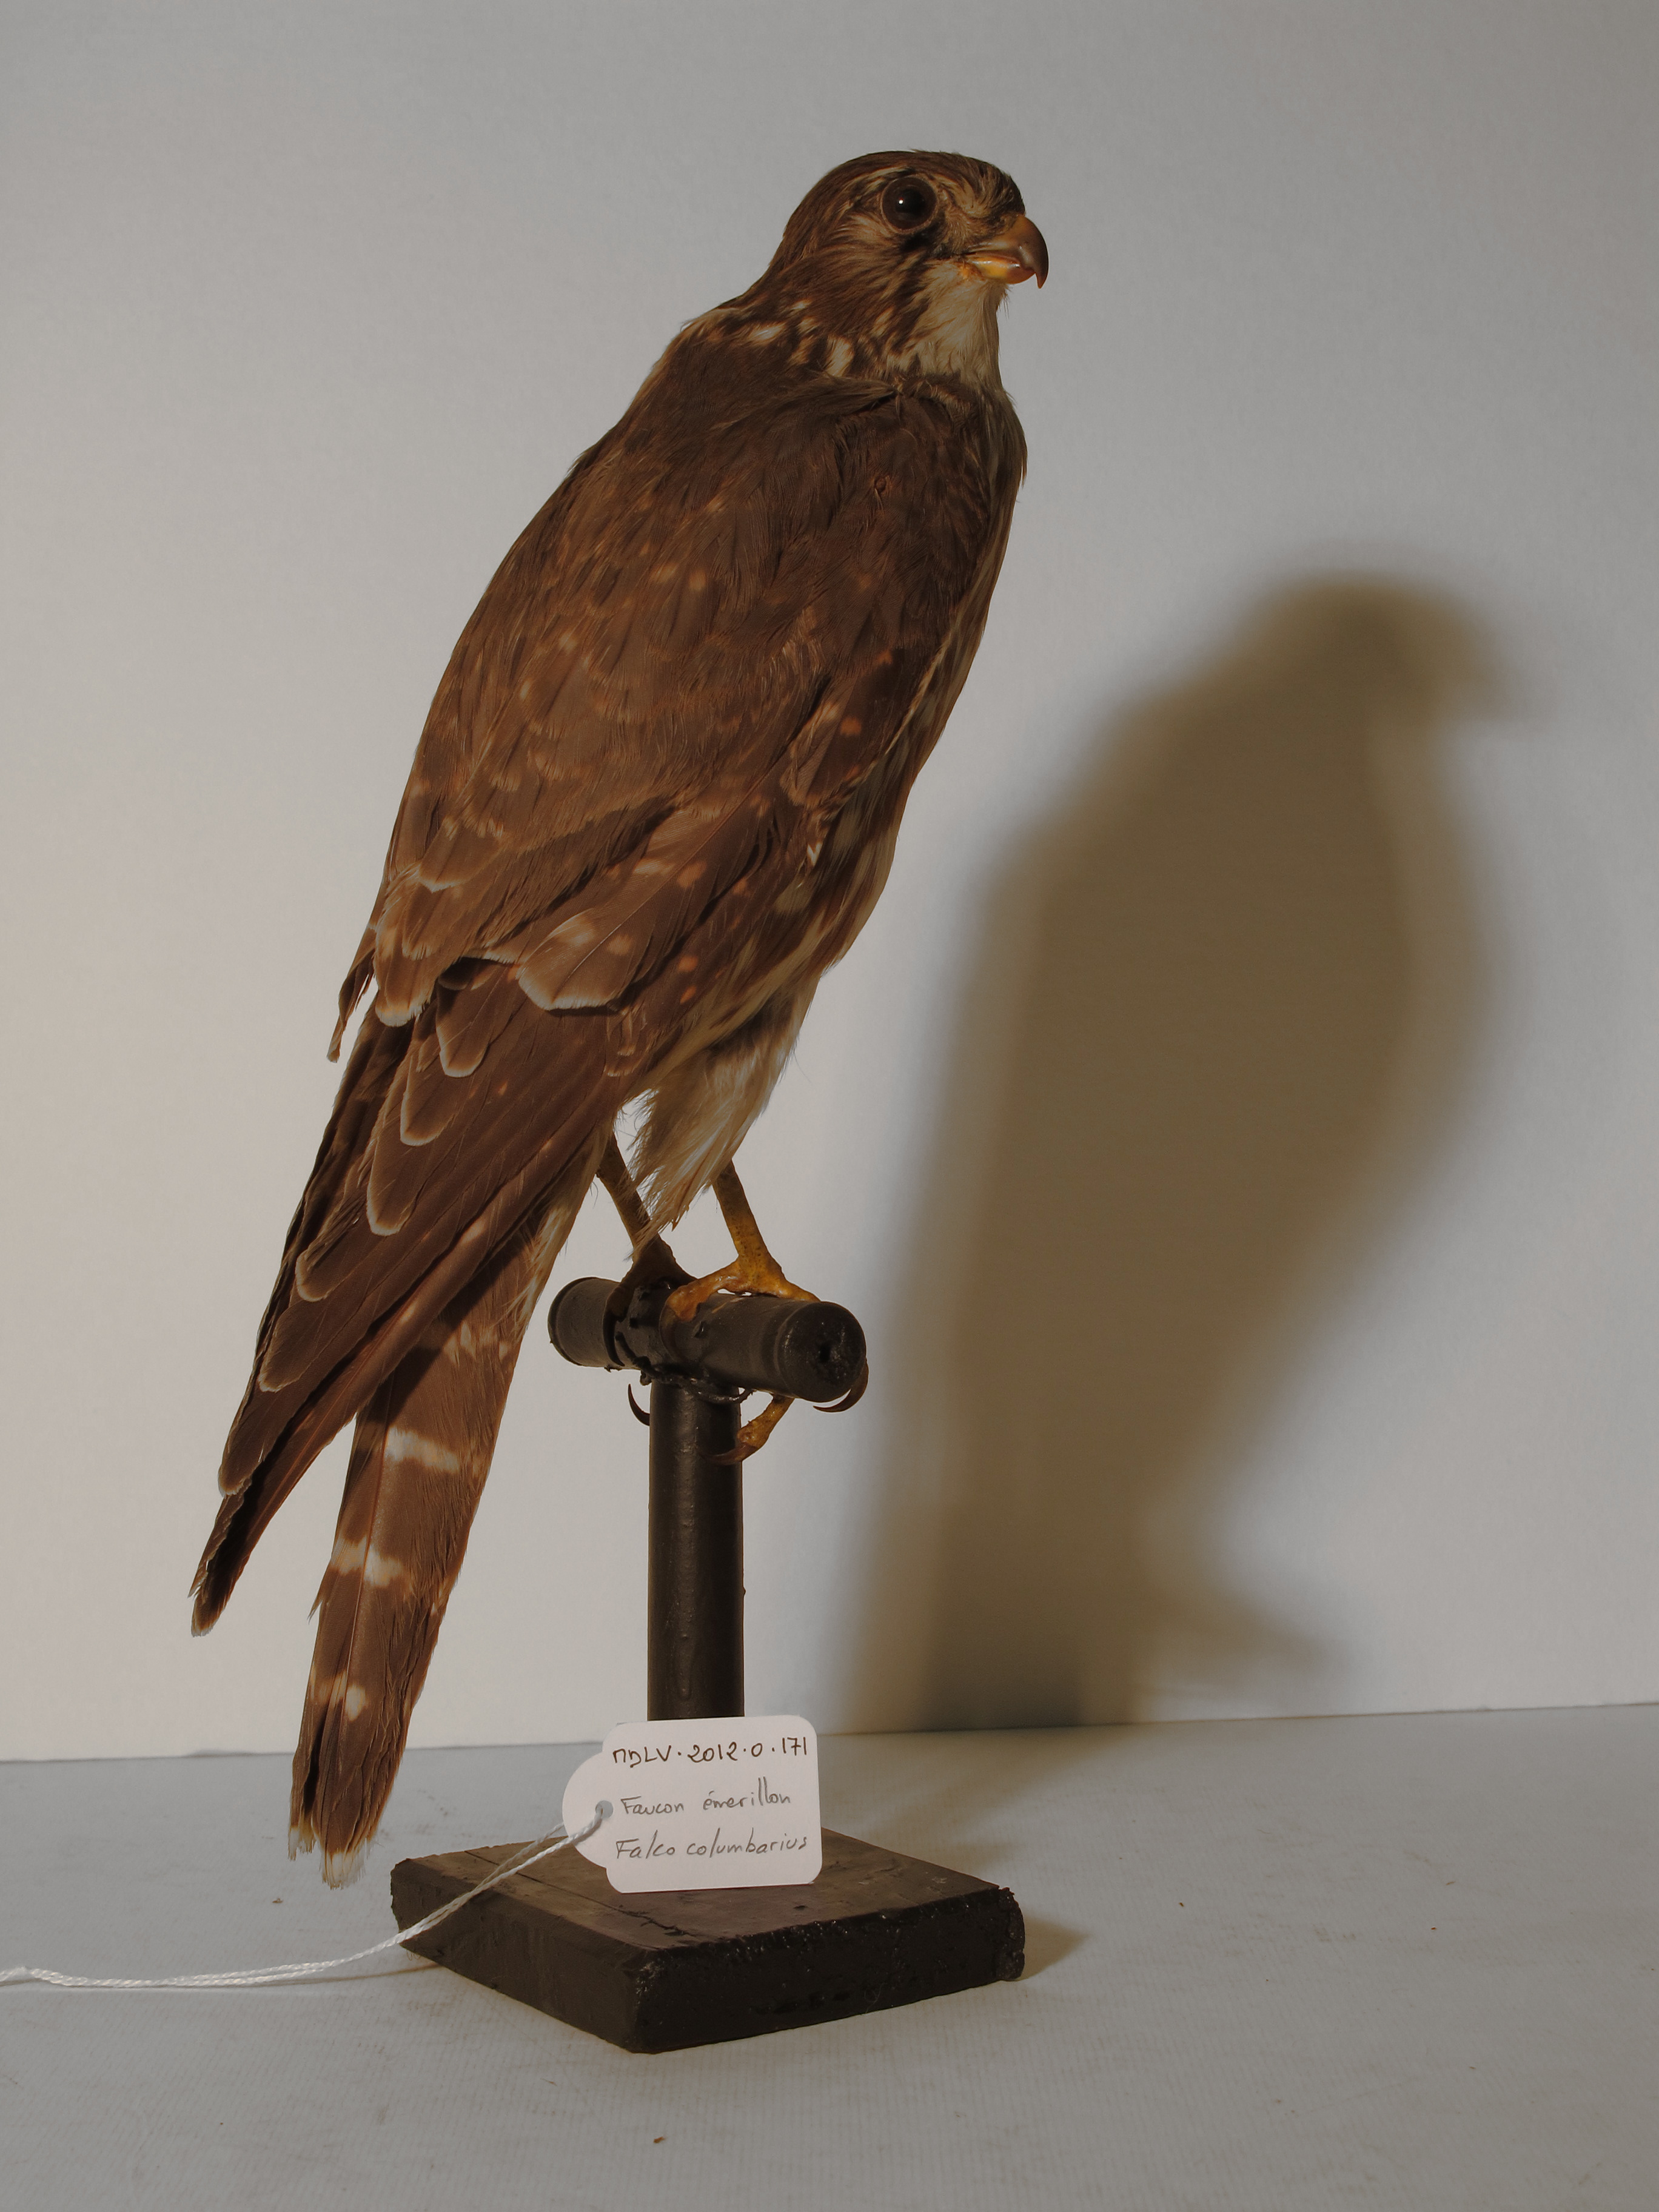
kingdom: Animalia
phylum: Chordata
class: Aves
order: Falconiformes
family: Falconidae
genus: Falco
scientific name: Falco columbarius
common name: Merlin
